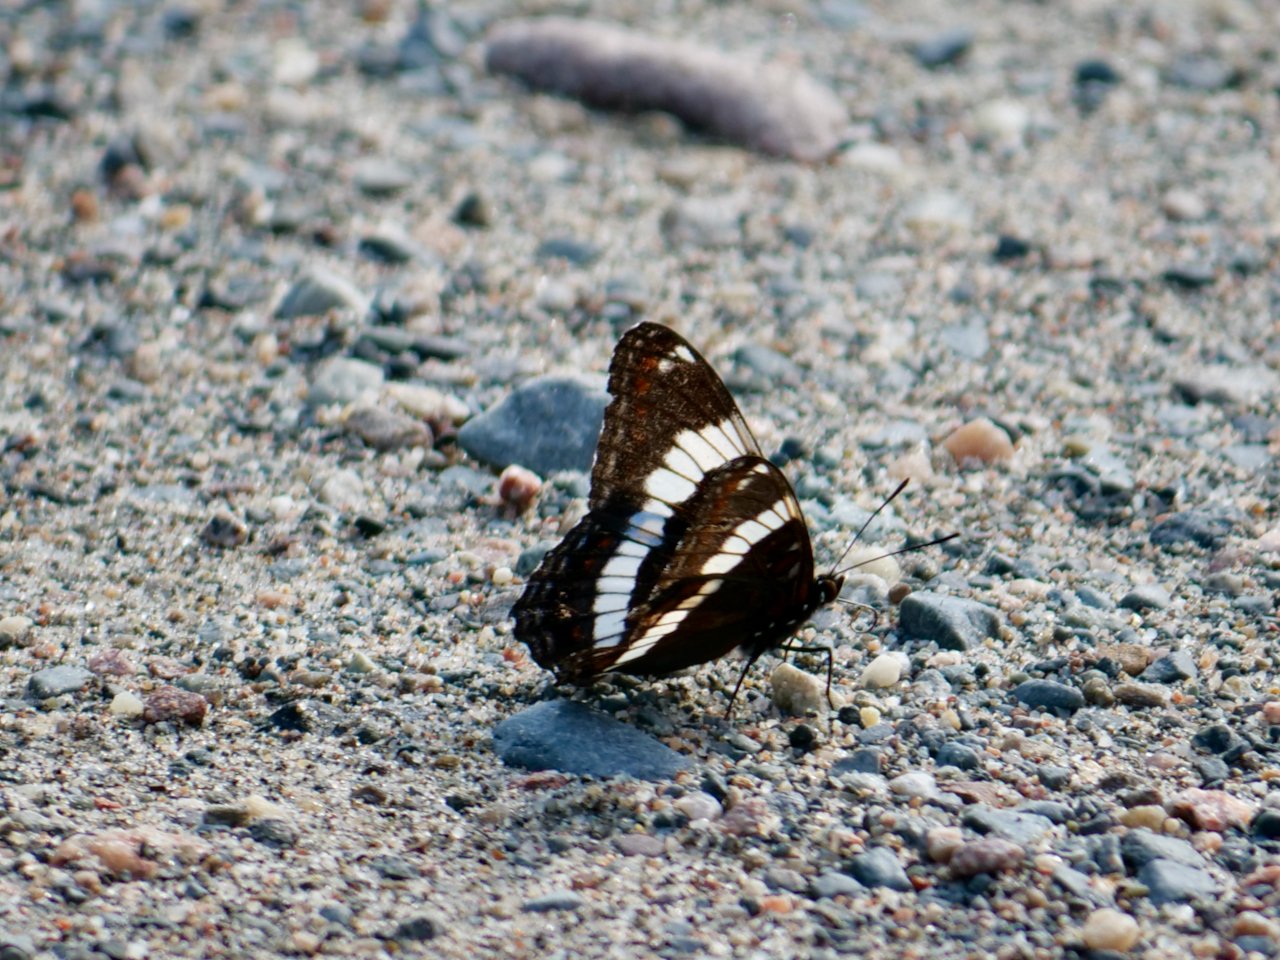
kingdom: Animalia
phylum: Arthropoda
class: Insecta
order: Lepidoptera
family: Nymphalidae
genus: Limenitis
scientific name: Limenitis arthemis
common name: Red-spotted Admiral
